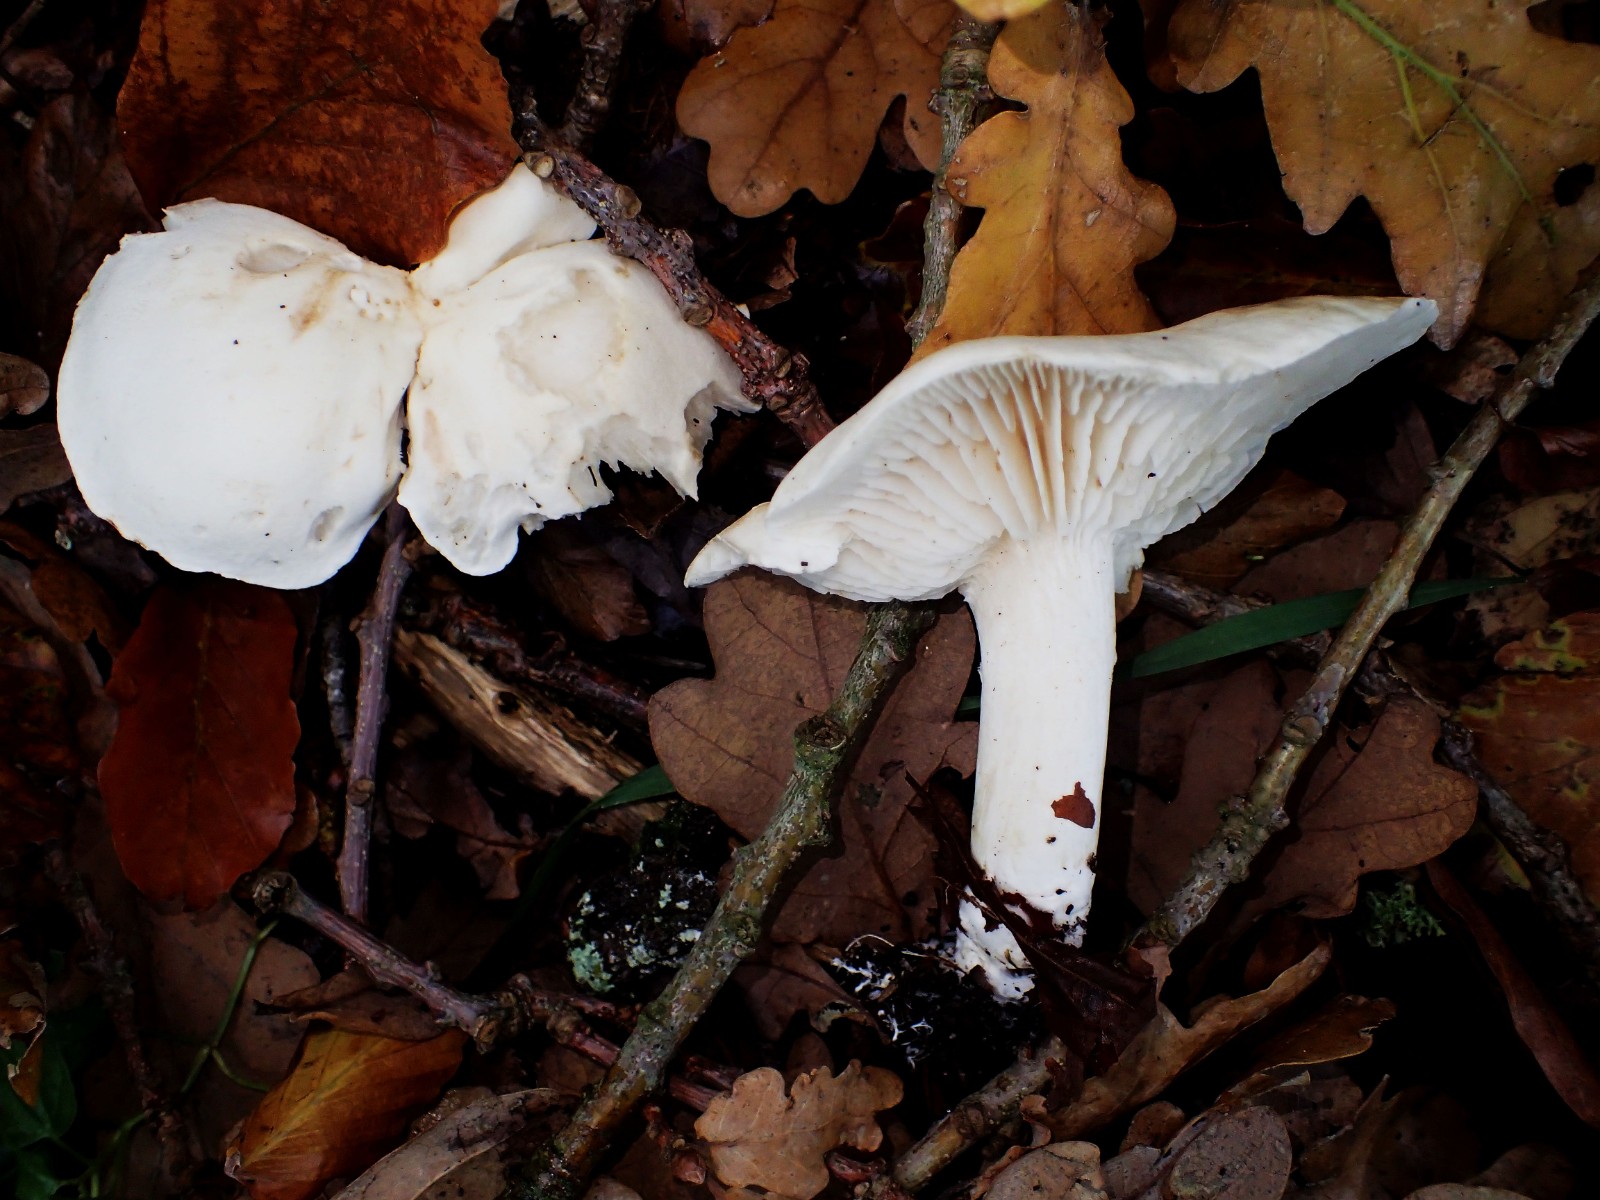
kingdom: Fungi
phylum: Basidiomycota
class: Agaricomycetes
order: Agaricales
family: Tricholomataceae
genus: Tricholoma
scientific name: Tricholoma album
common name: honning-ridderhat
